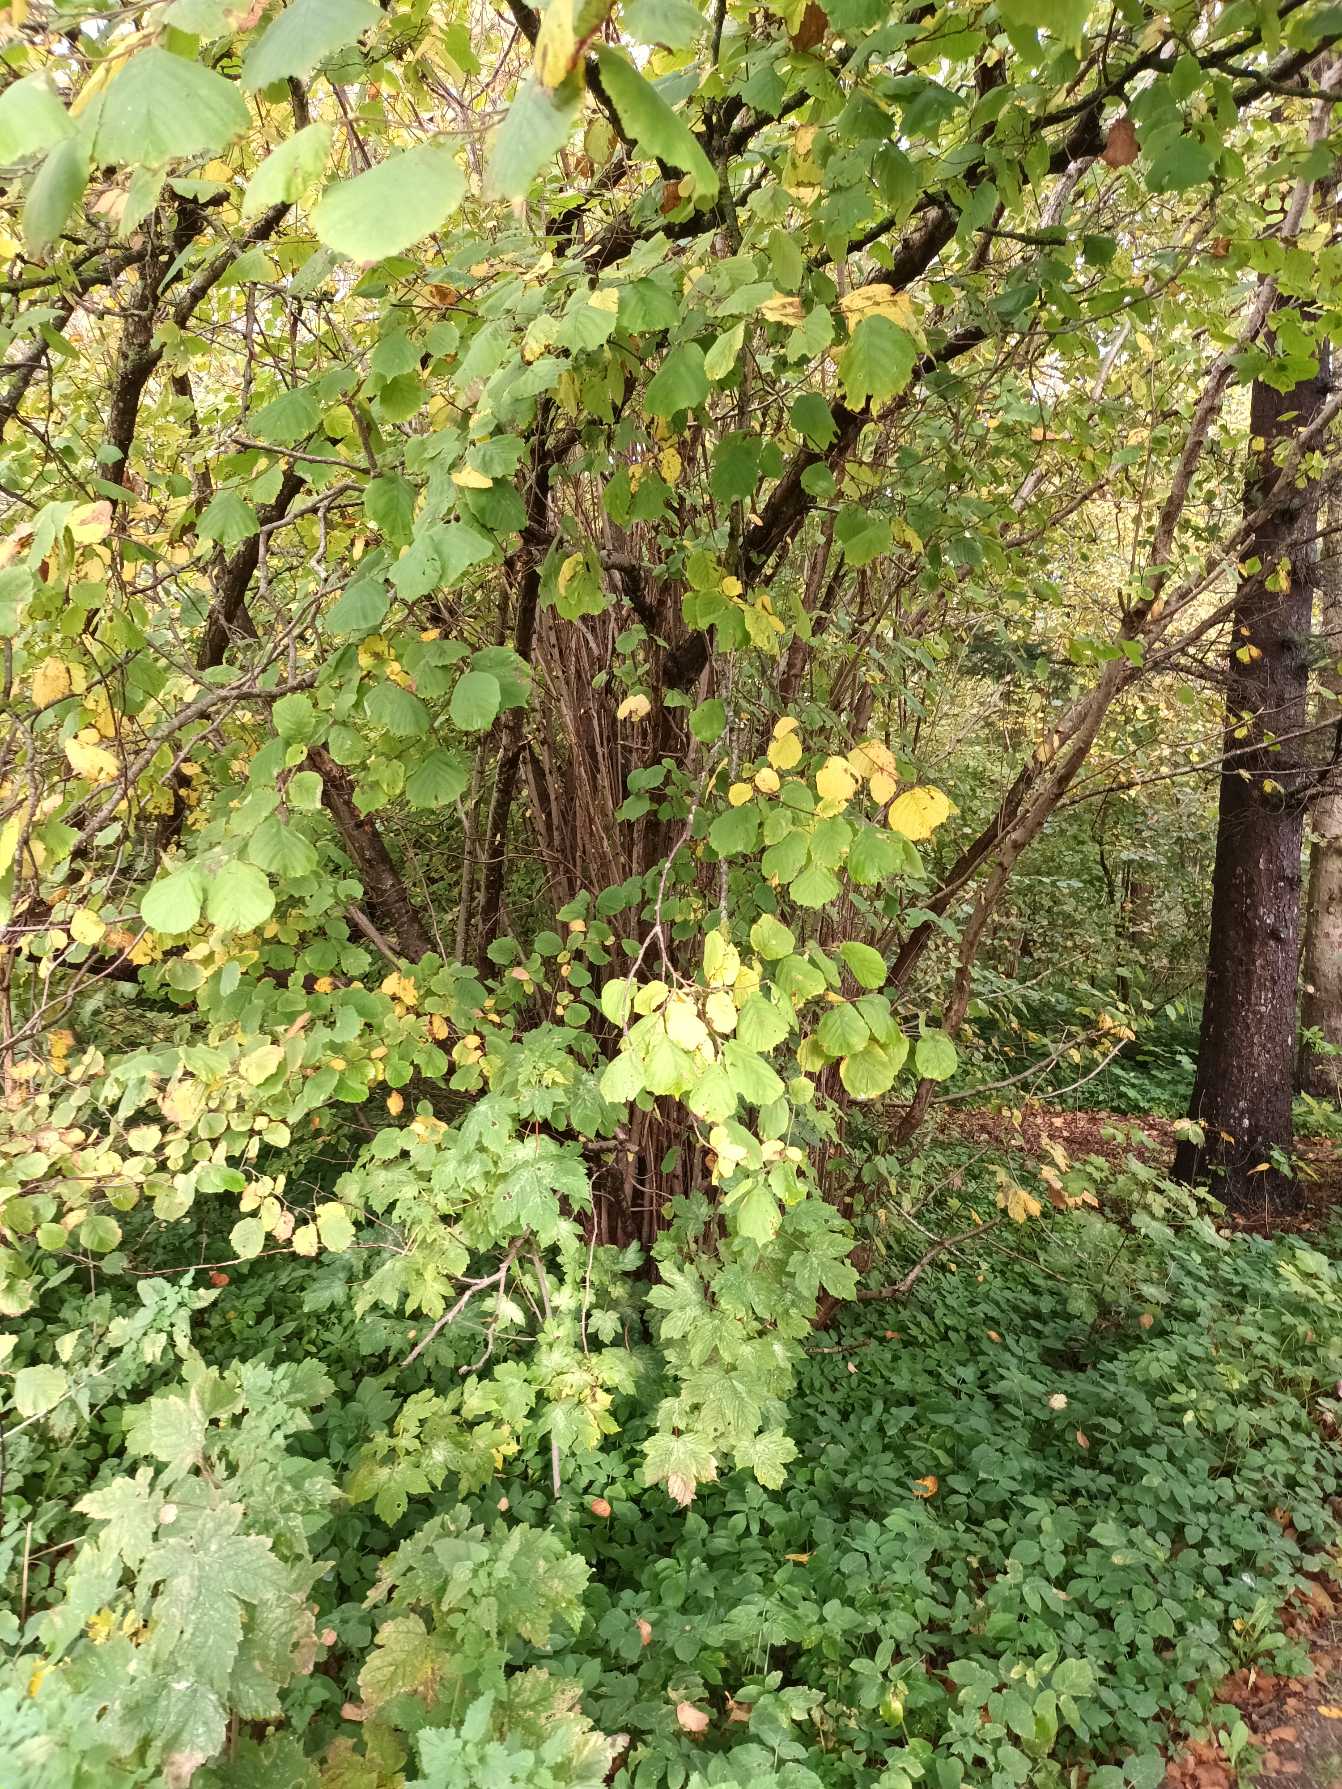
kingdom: Plantae
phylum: Tracheophyta
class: Magnoliopsida
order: Fagales
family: Betulaceae
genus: Corylus
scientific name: Corylus avellana
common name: Hassel
